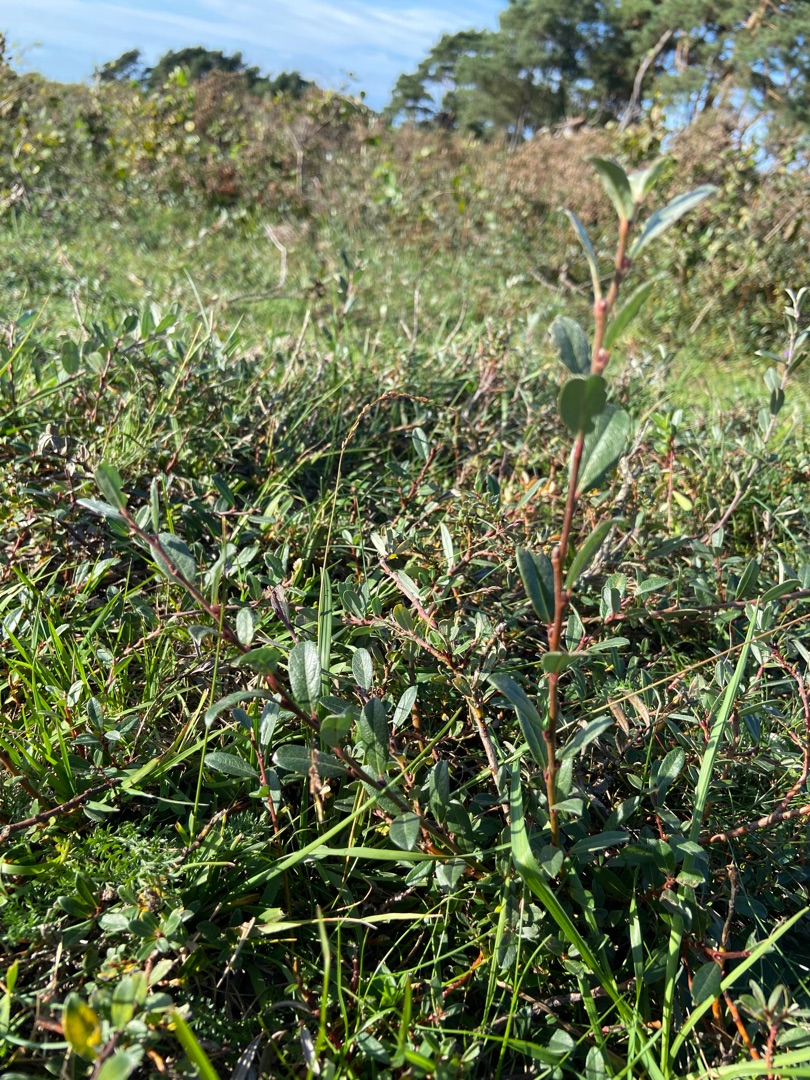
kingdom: Plantae
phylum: Tracheophyta
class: Magnoliopsida
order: Malpighiales
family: Salicaceae
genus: Salix
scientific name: Salix repens
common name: Krybende pil
